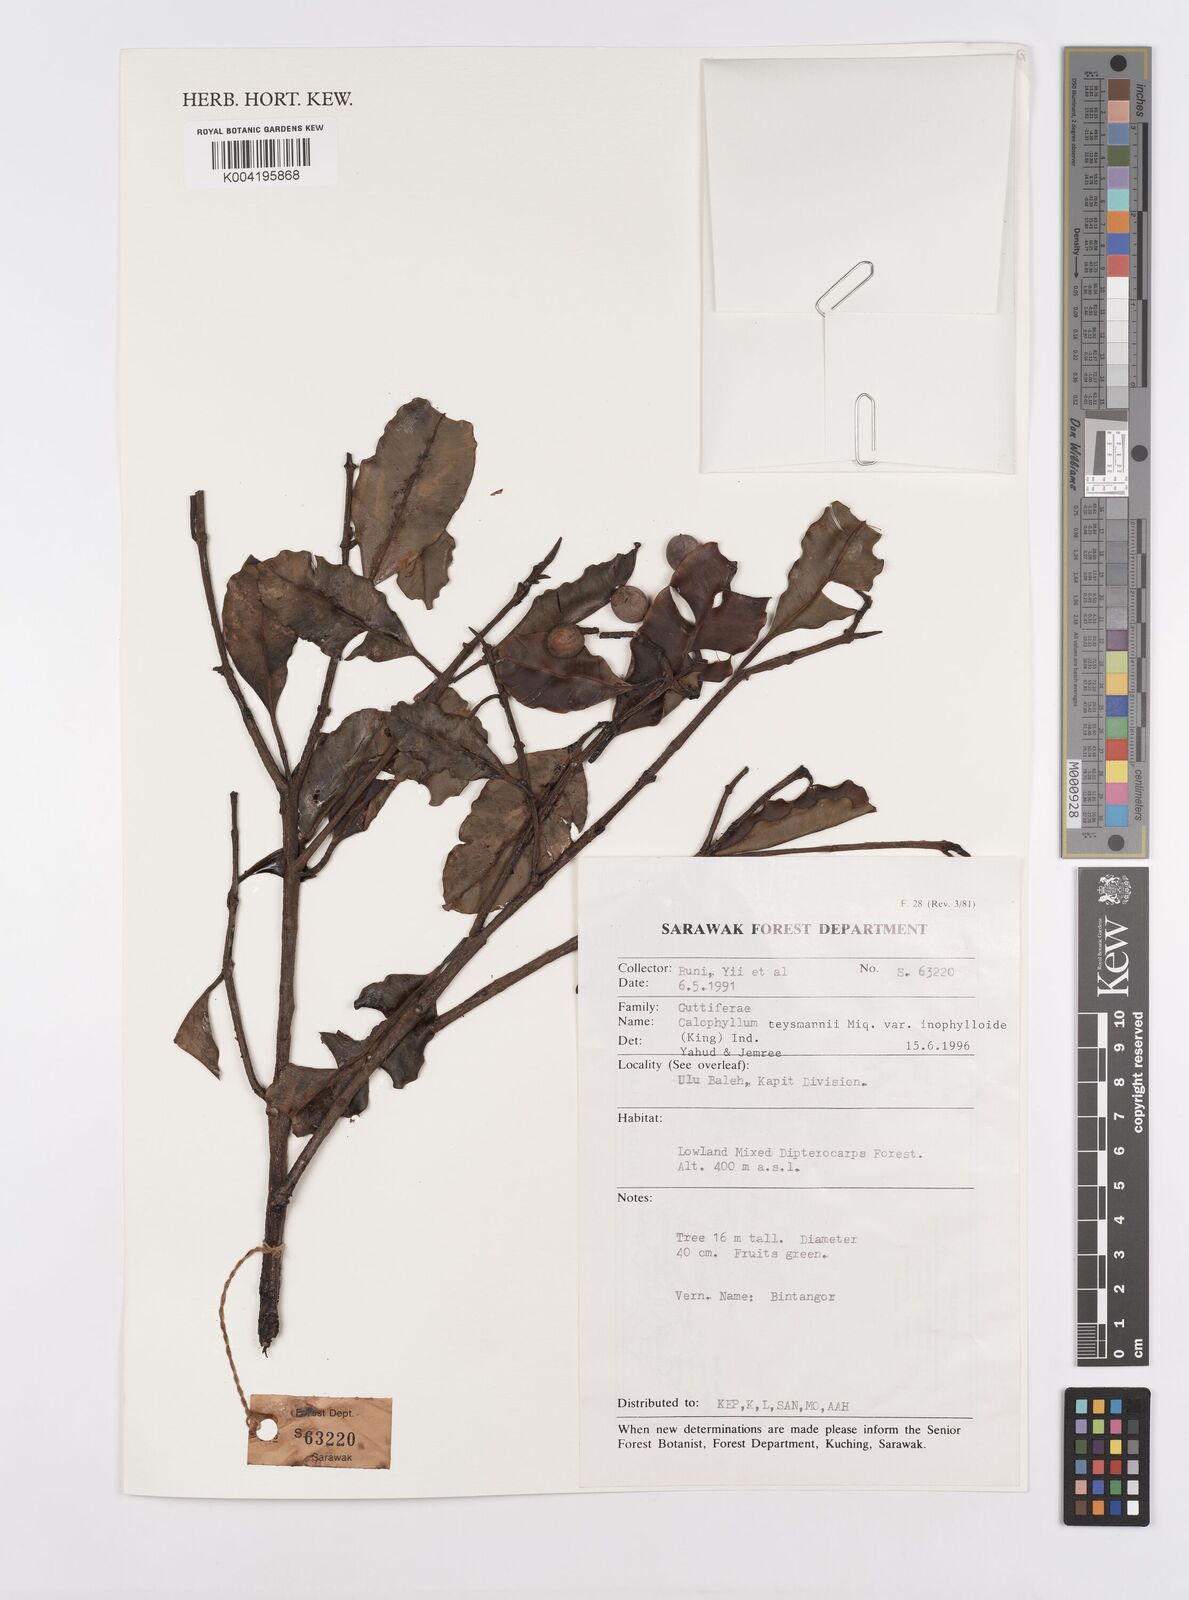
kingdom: Plantae
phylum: Tracheophyta
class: Magnoliopsida
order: Malpighiales
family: Calophyllaceae
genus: Calophyllum
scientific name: Calophyllum teysmannii
